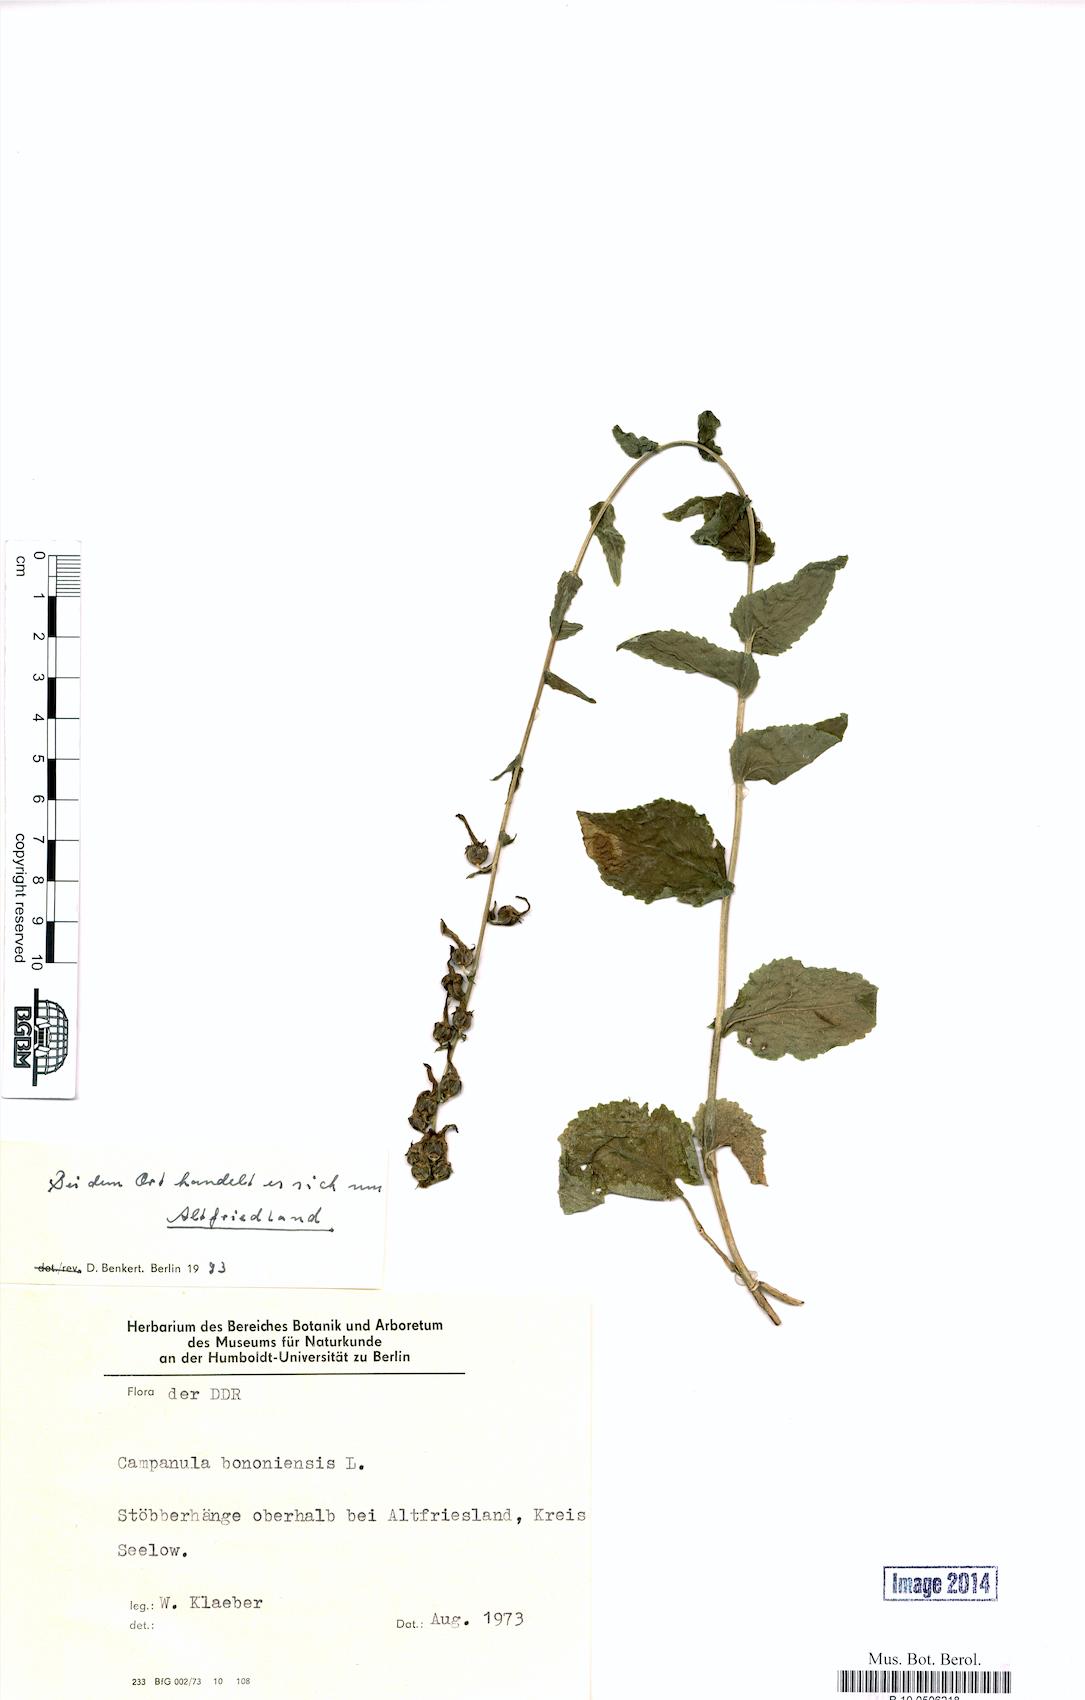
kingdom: Plantae
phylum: Tracheophyta
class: Magnoliopsida
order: Asterales
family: Campanulaceae
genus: Campanula
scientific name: Campanula bononiensis
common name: Pale bellflower
